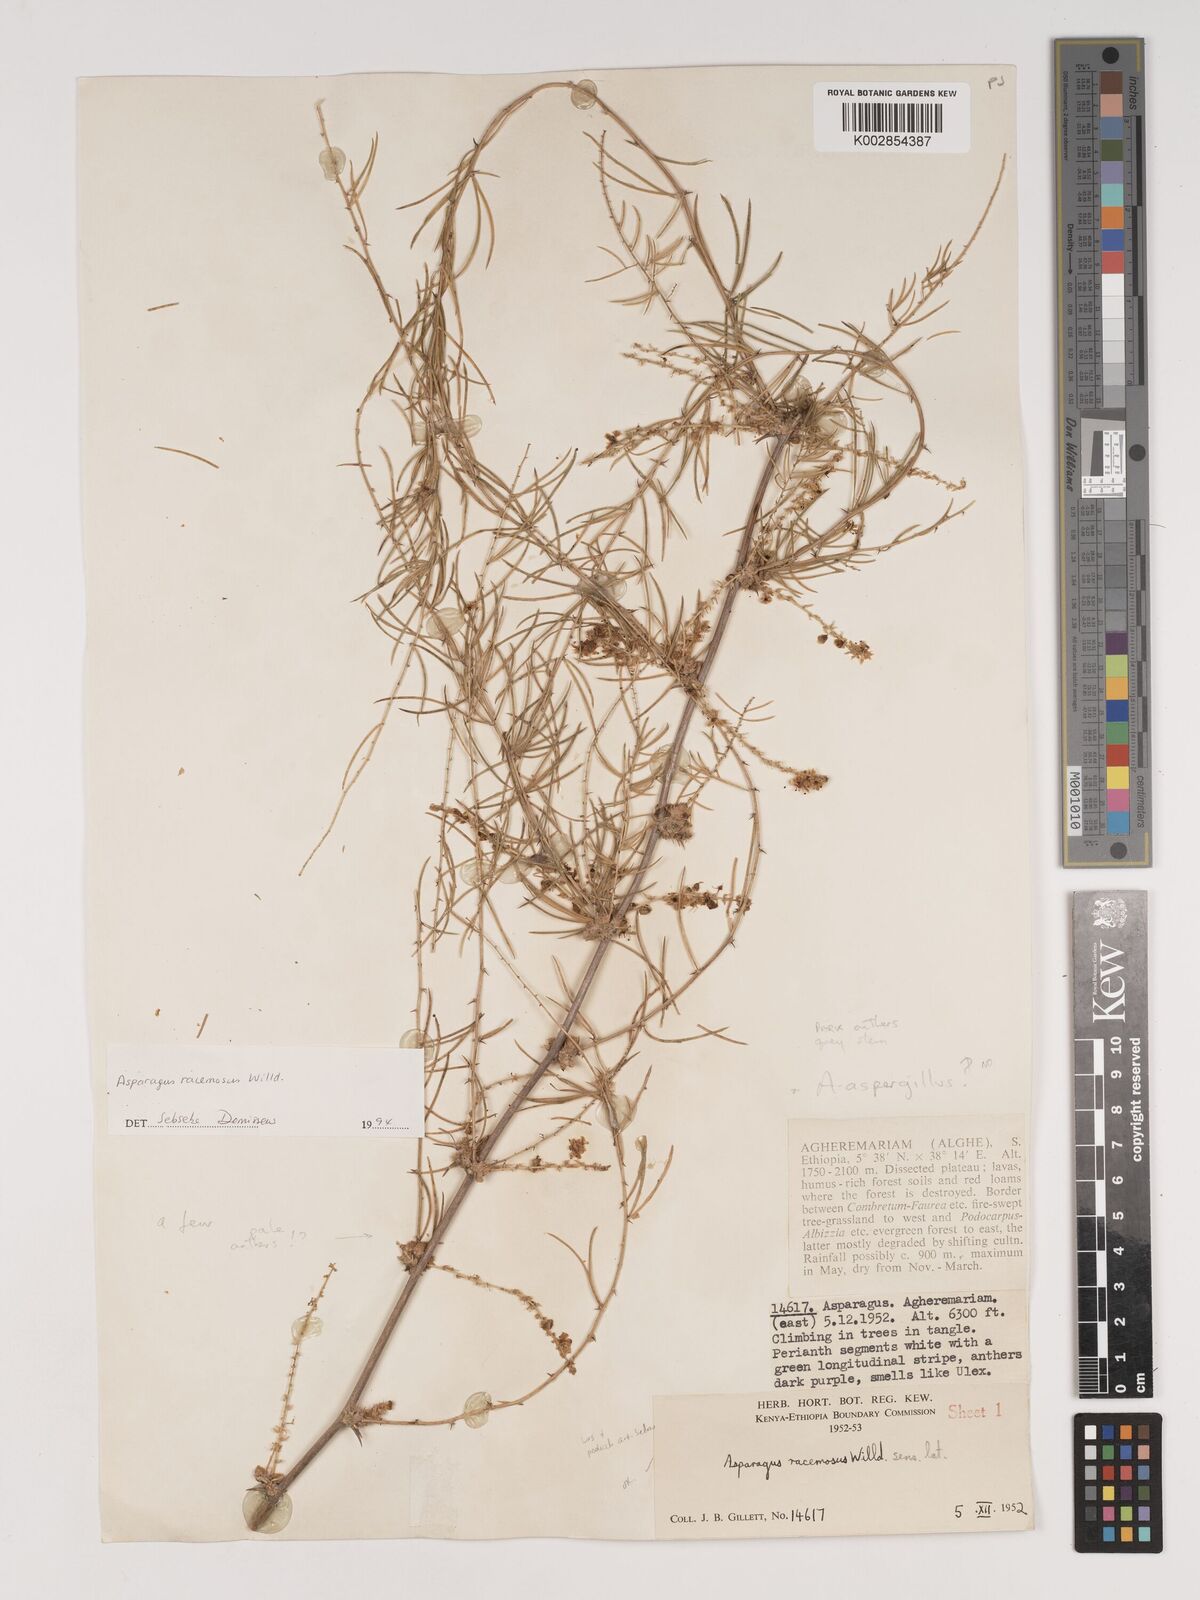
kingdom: Plantae
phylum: Tracheophyta
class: Liliopsida
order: Asparagales
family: Asparagaceae
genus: Asparagus
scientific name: Asparagus racemosus
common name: Asparagus-fern
